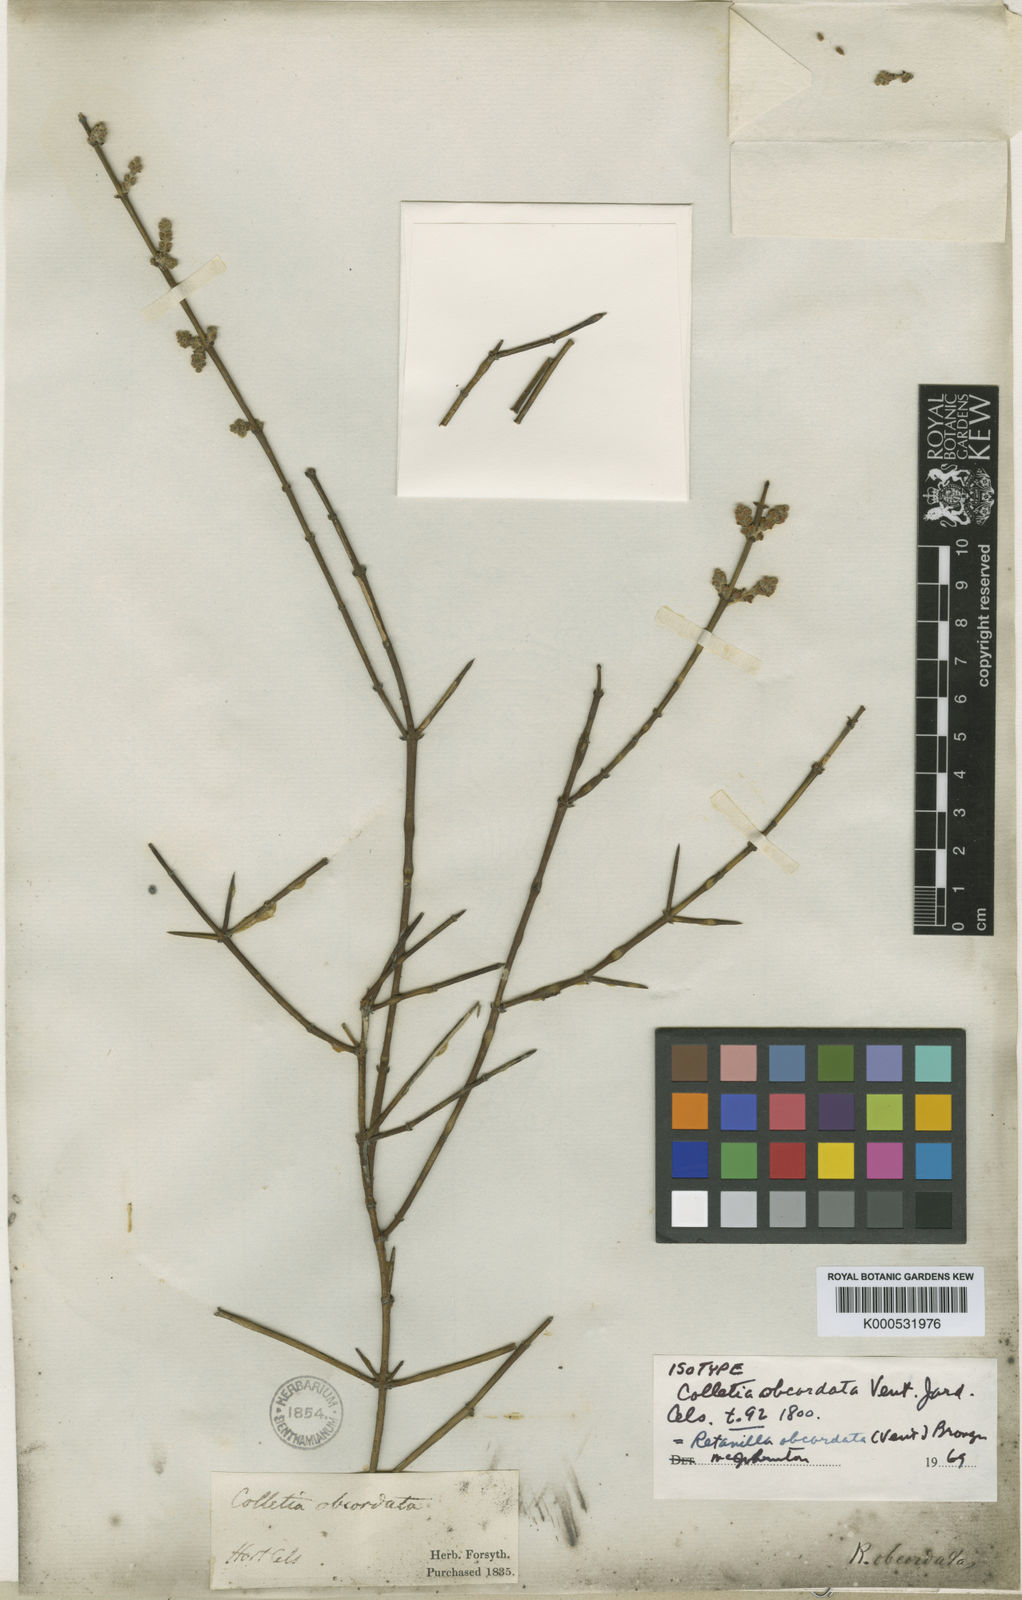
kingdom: Plantae
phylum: Tracheophyta
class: Magnoliopsida
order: Rosales
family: Rhamnaceae
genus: Retanilla
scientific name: Retanilla ephedra
